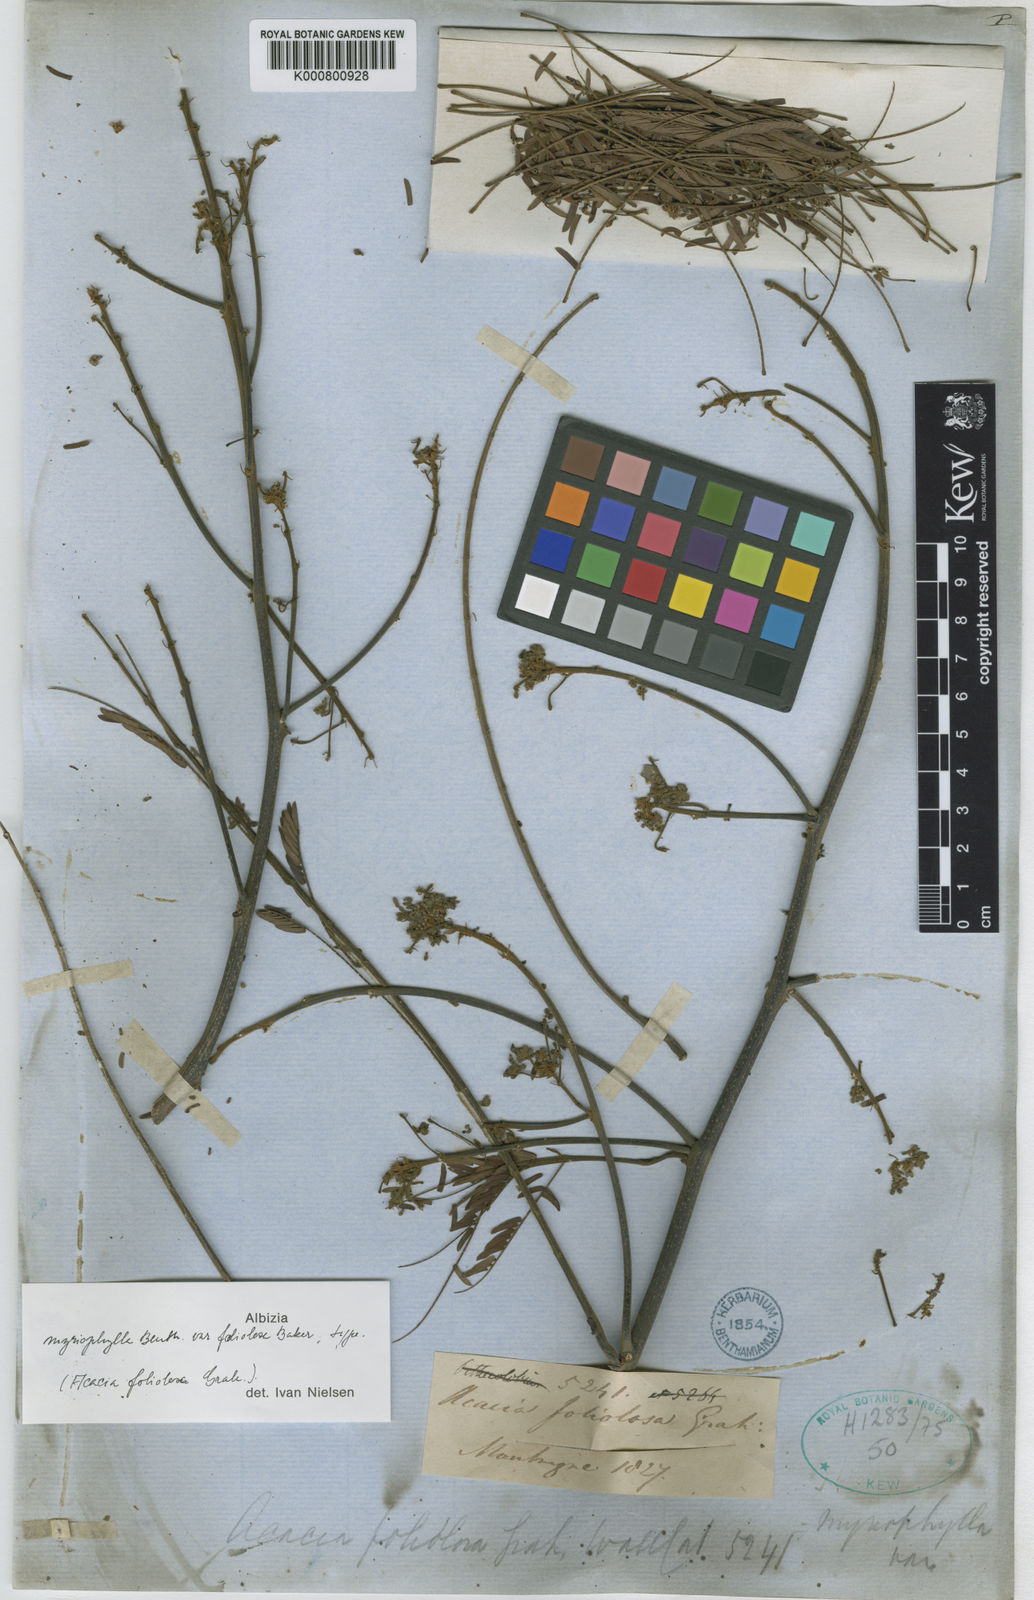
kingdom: Plantae
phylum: Tracheophyta
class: Magnoliopsida
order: Fabales
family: Fabaceae
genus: Albizia
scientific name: Albizia myriophylla
